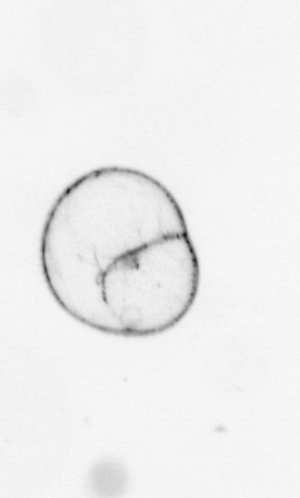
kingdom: Chromista
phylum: Myzozoa
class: Dinophyceae
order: Noctilucales
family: Noctilucaceae
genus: Noctiluca
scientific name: Noctiluca scintillans
